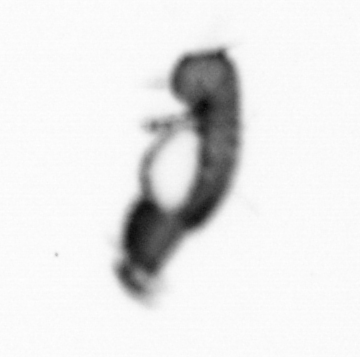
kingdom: Animalia
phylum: Annelida
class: Polychaeta
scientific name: Polychaeta
